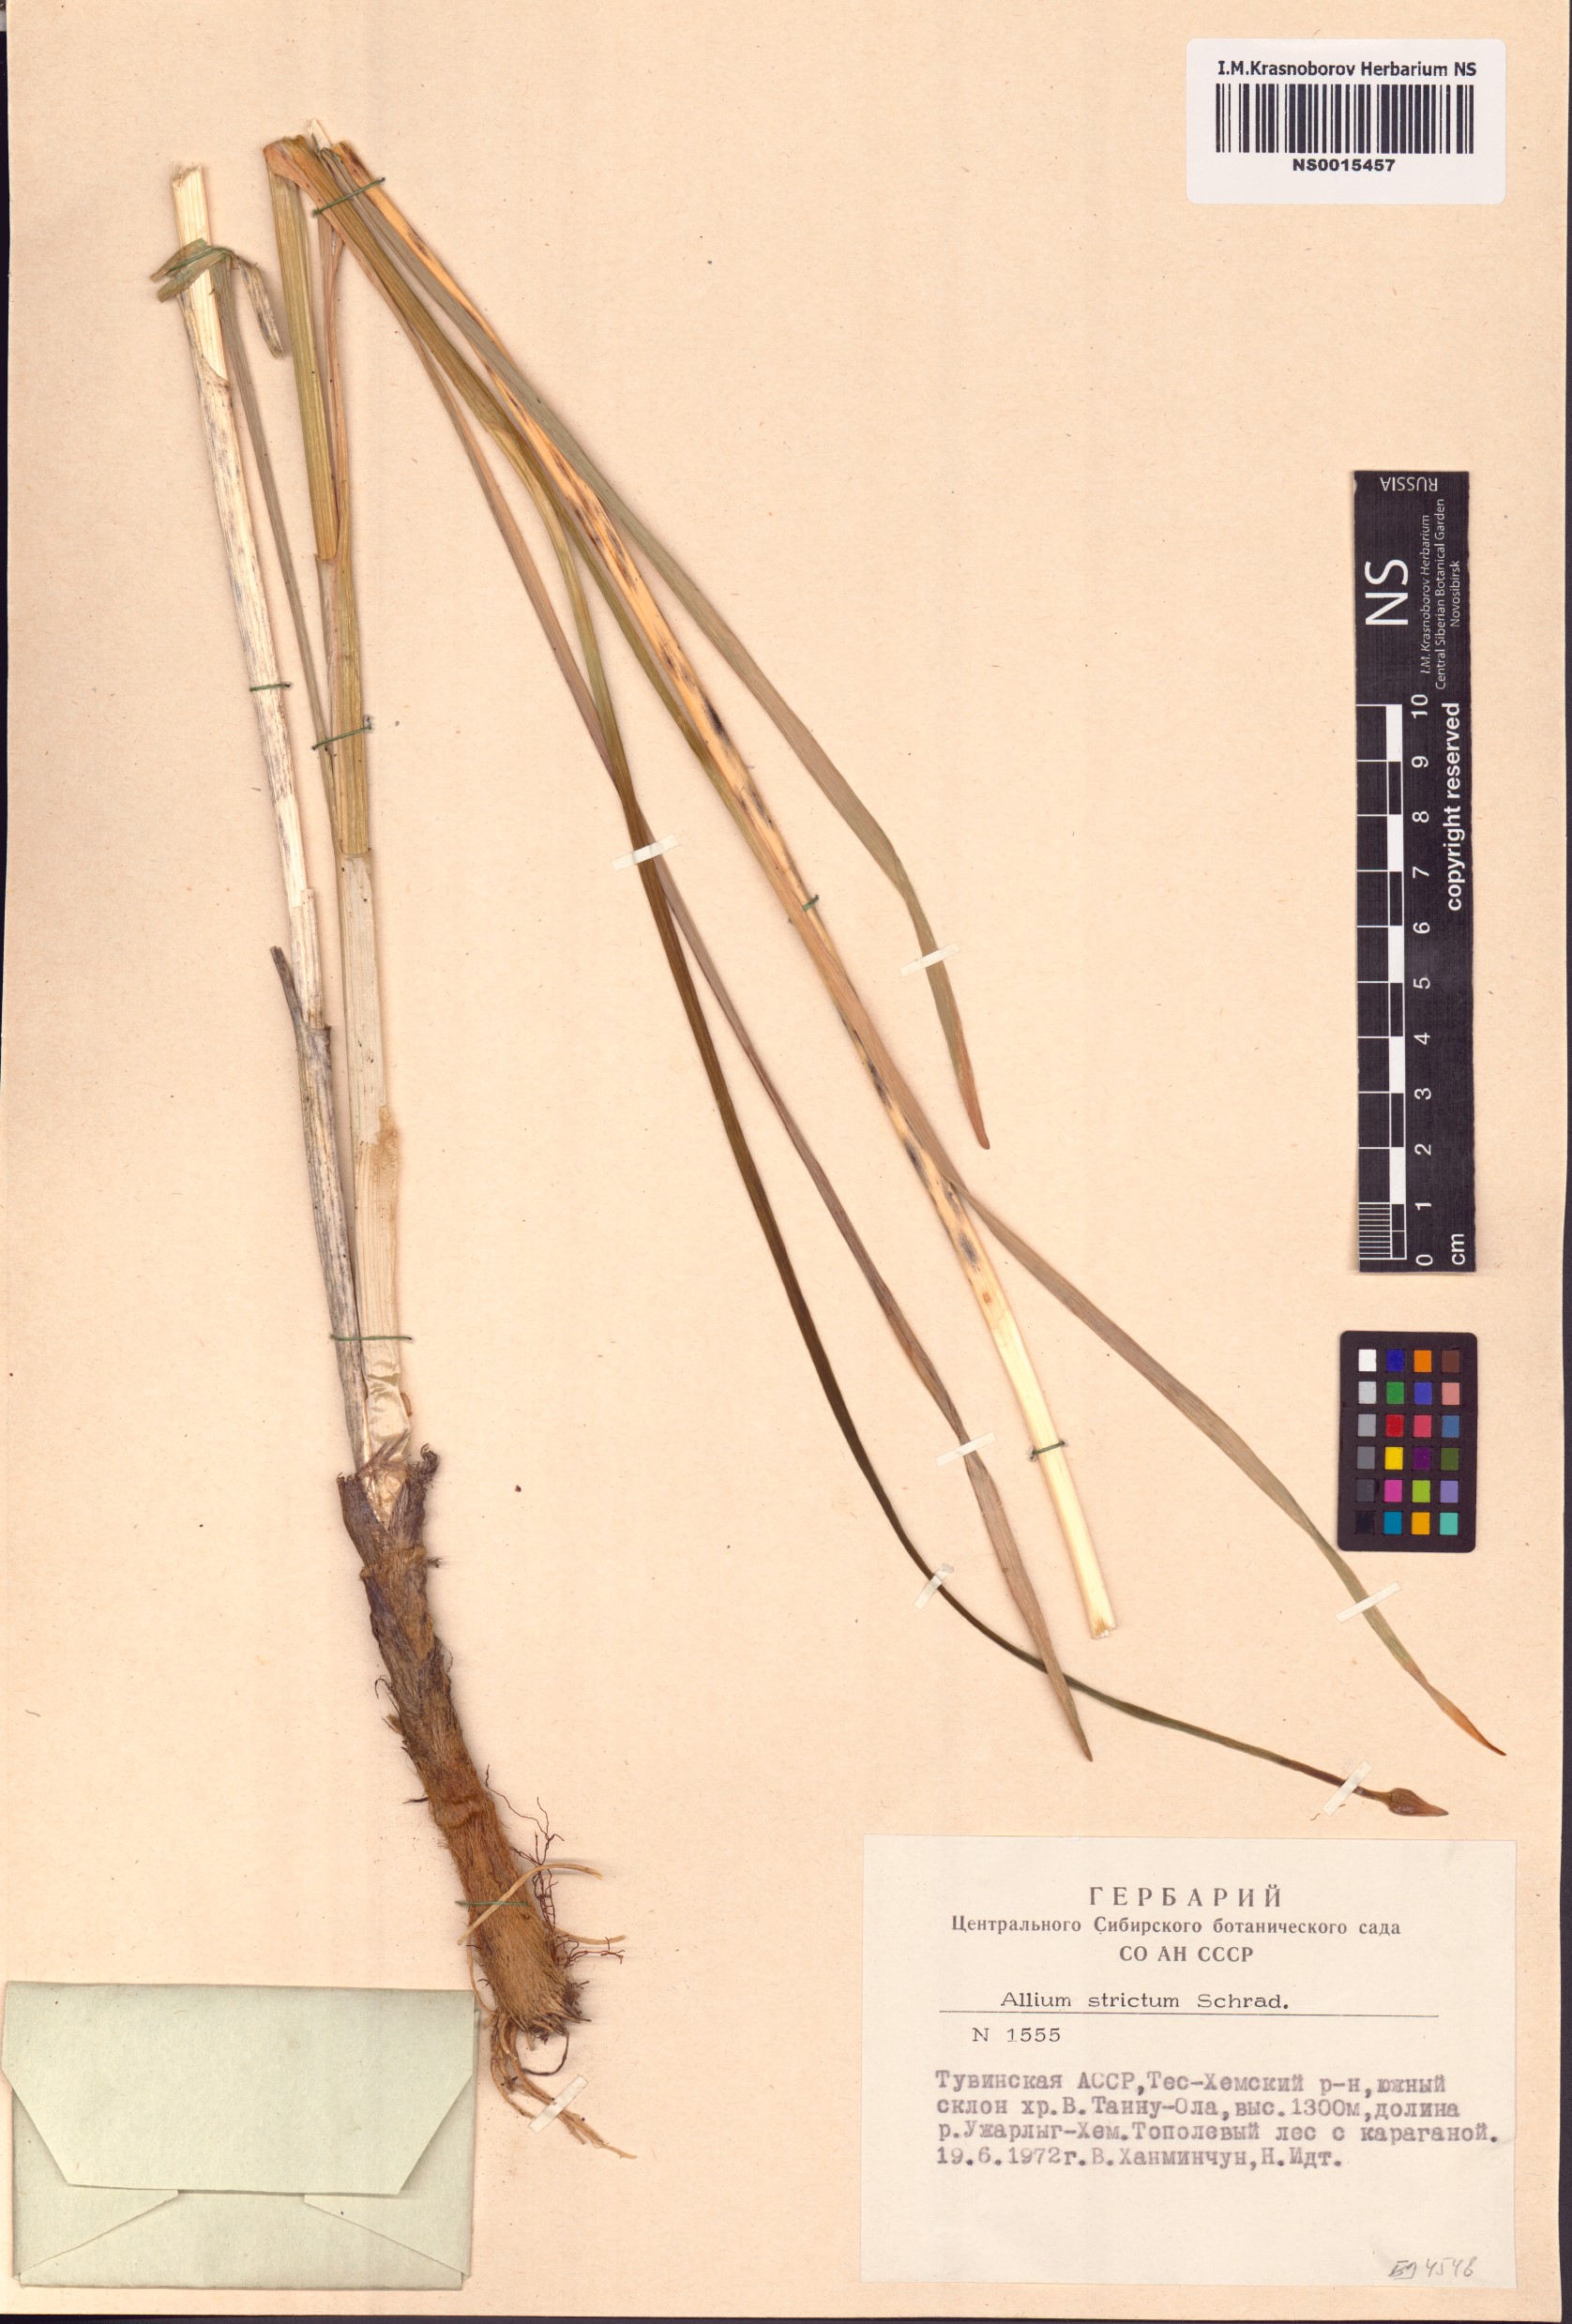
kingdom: Plantae
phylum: Tracheophyta
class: Liliopsida
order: Asparagales
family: Amaryllidaceae
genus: Allium
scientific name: Allium strictum
